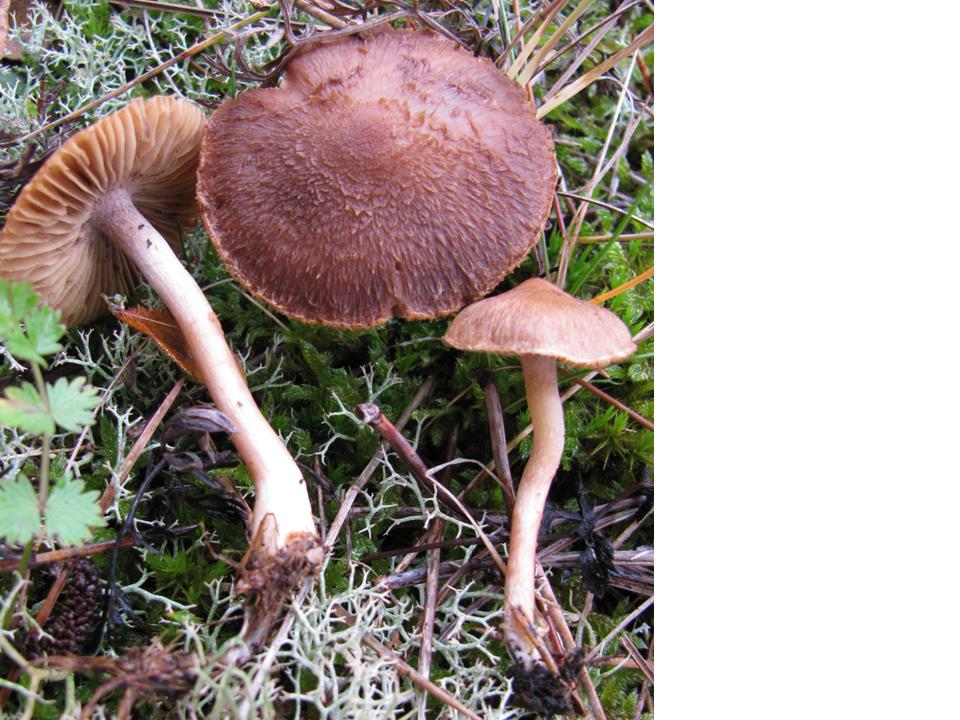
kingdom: Fungi
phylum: Basidiomycota
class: Agaricomycetes
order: Agaricales
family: Inocybaceae
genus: Inocybe
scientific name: Inocybe
